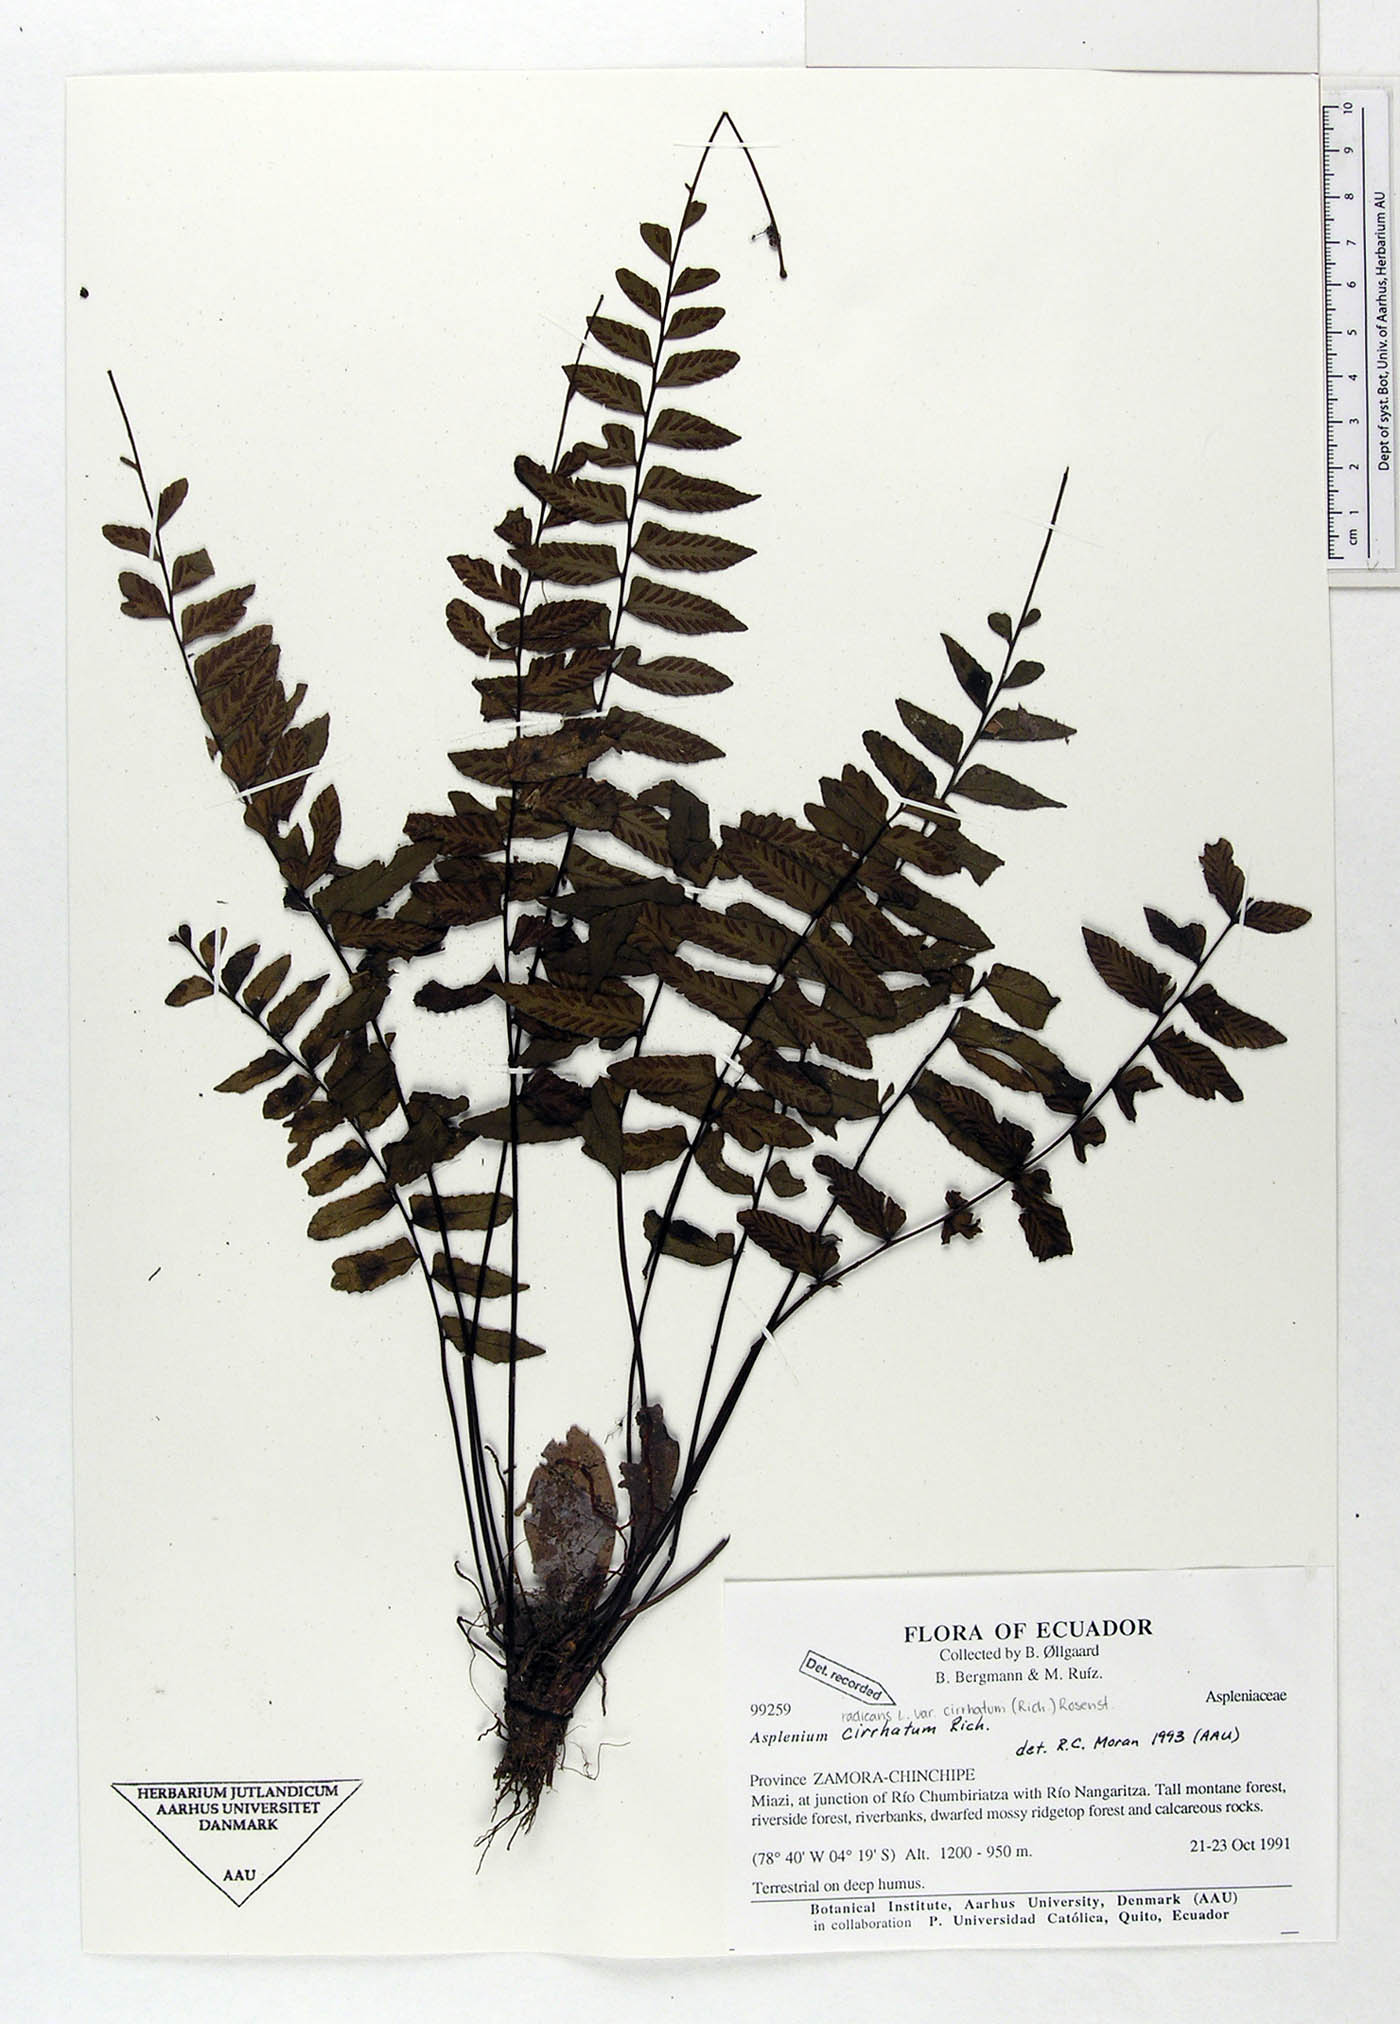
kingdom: Plantae
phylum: Tracheophyta
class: Polypodiopsida
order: Polypodiales
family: Aspleniaceae
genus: Asplenium
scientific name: Asplenium cirrhatum
